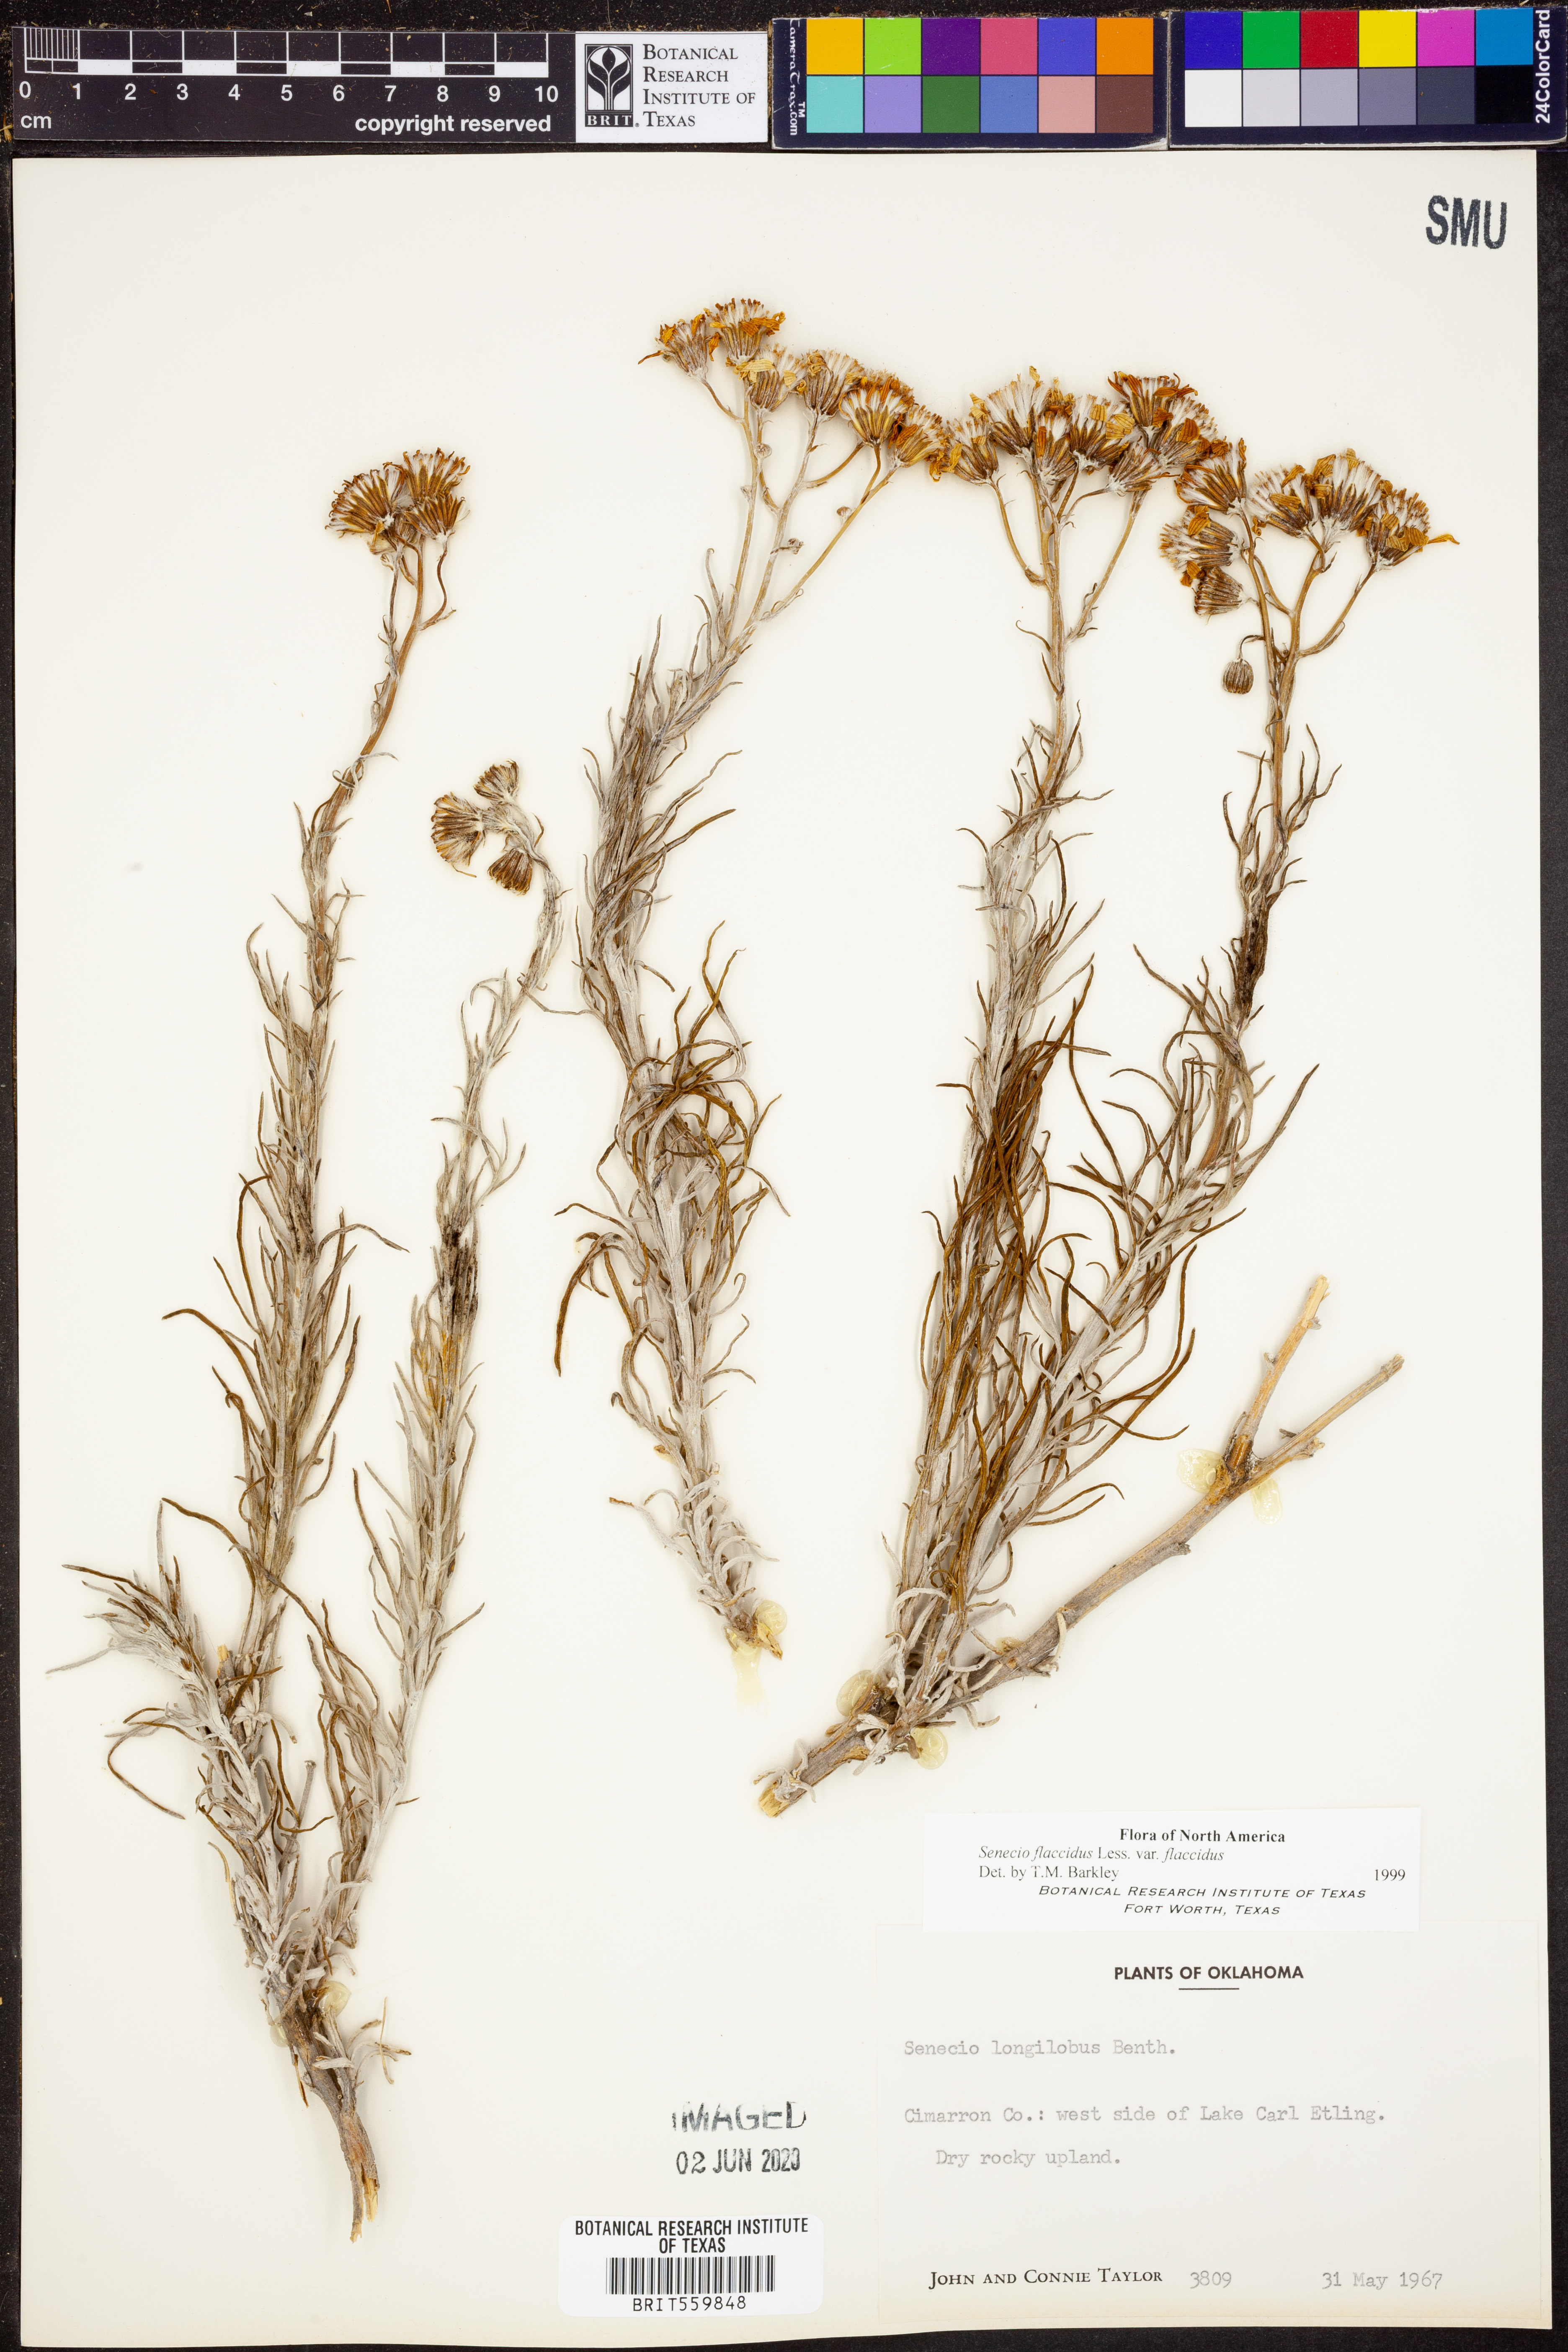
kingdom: Plantae
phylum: Tracheophyta
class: Magnoliopsida
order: Asterales
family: Asteraceae
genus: Senecio
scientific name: Senecio flaccidus
